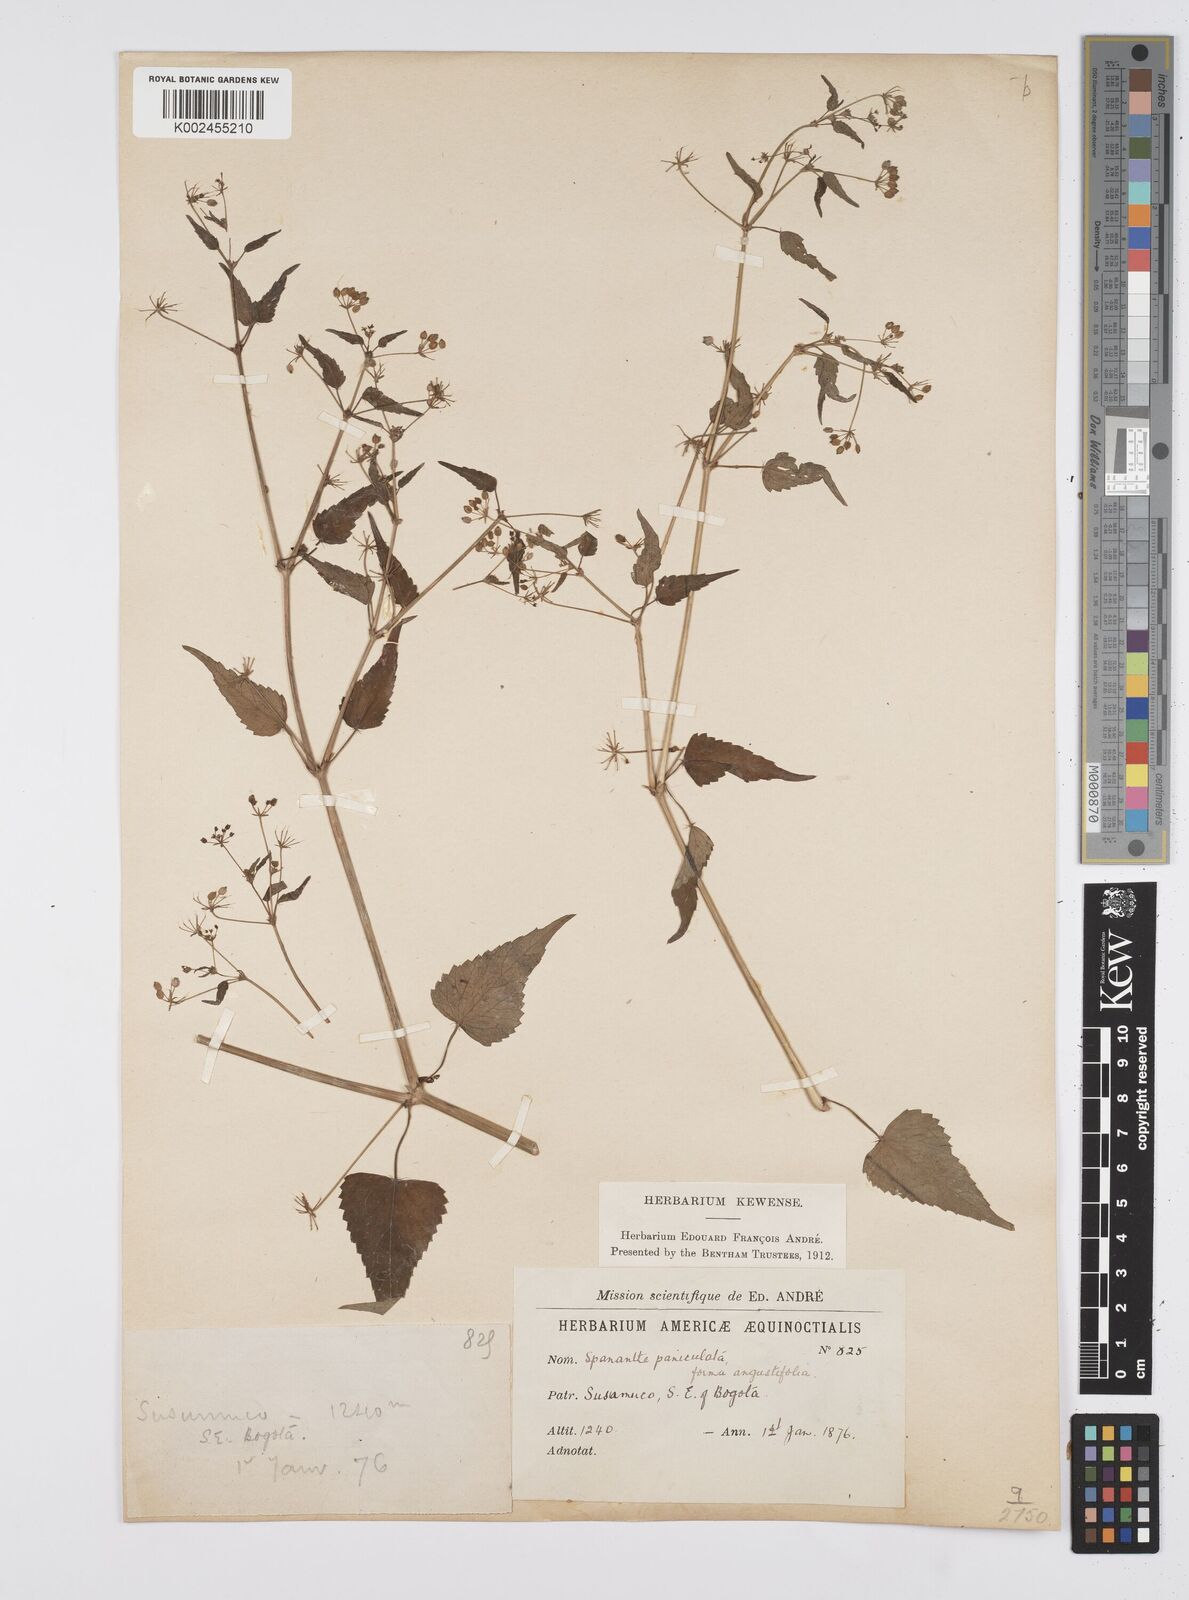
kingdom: Plantae
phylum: Tracheophyta
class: Magnoliopsida
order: Apiales
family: Apiaceae
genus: Azorella
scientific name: Azorella
